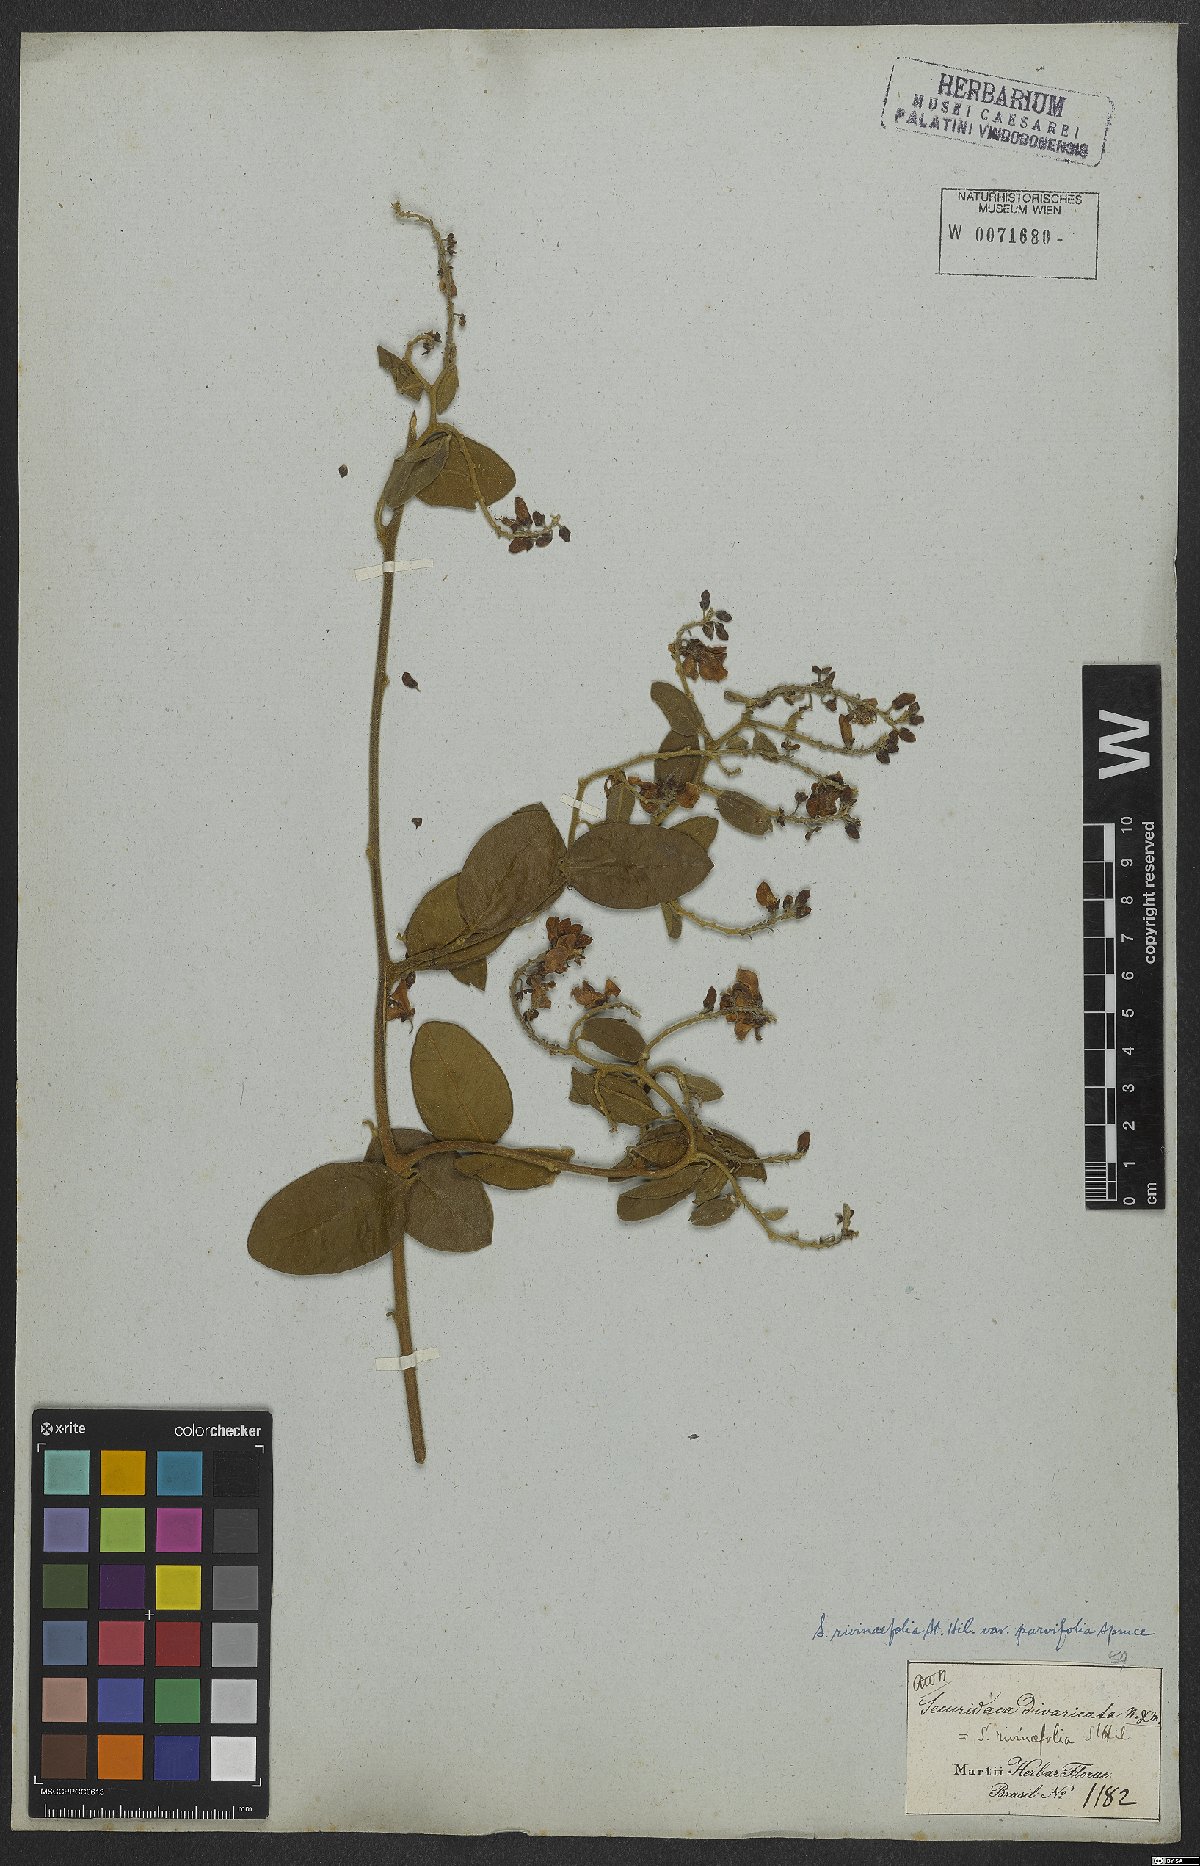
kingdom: Plantae
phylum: Tracheophyta
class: Magnoliopsida
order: Fabales
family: Polygalaceae
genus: Securidaca
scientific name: Securidaca rivinifolia
